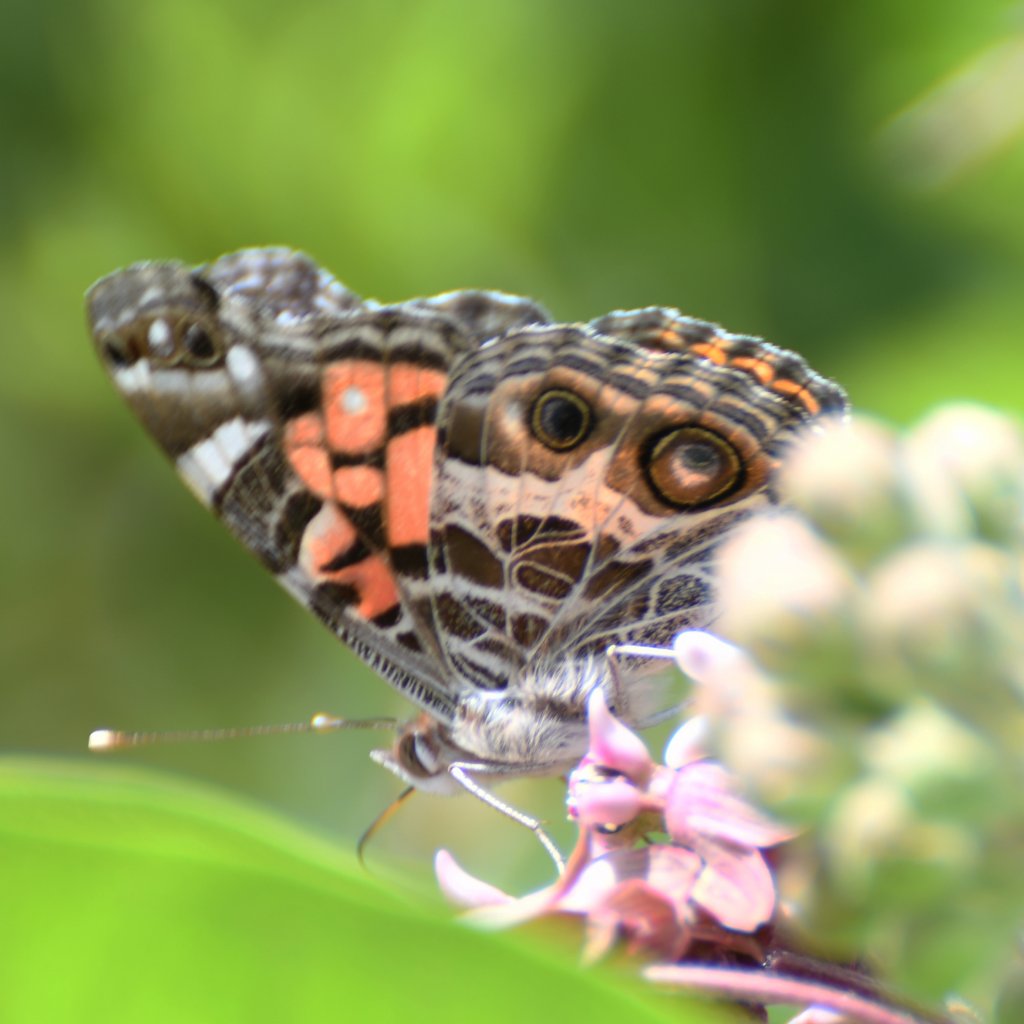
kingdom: Animalia
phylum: Arthropoda
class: Insecta
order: Lepidoptera
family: Nymphalidae
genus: Vanessa
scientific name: Vanessa virginiensis
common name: American Lady
